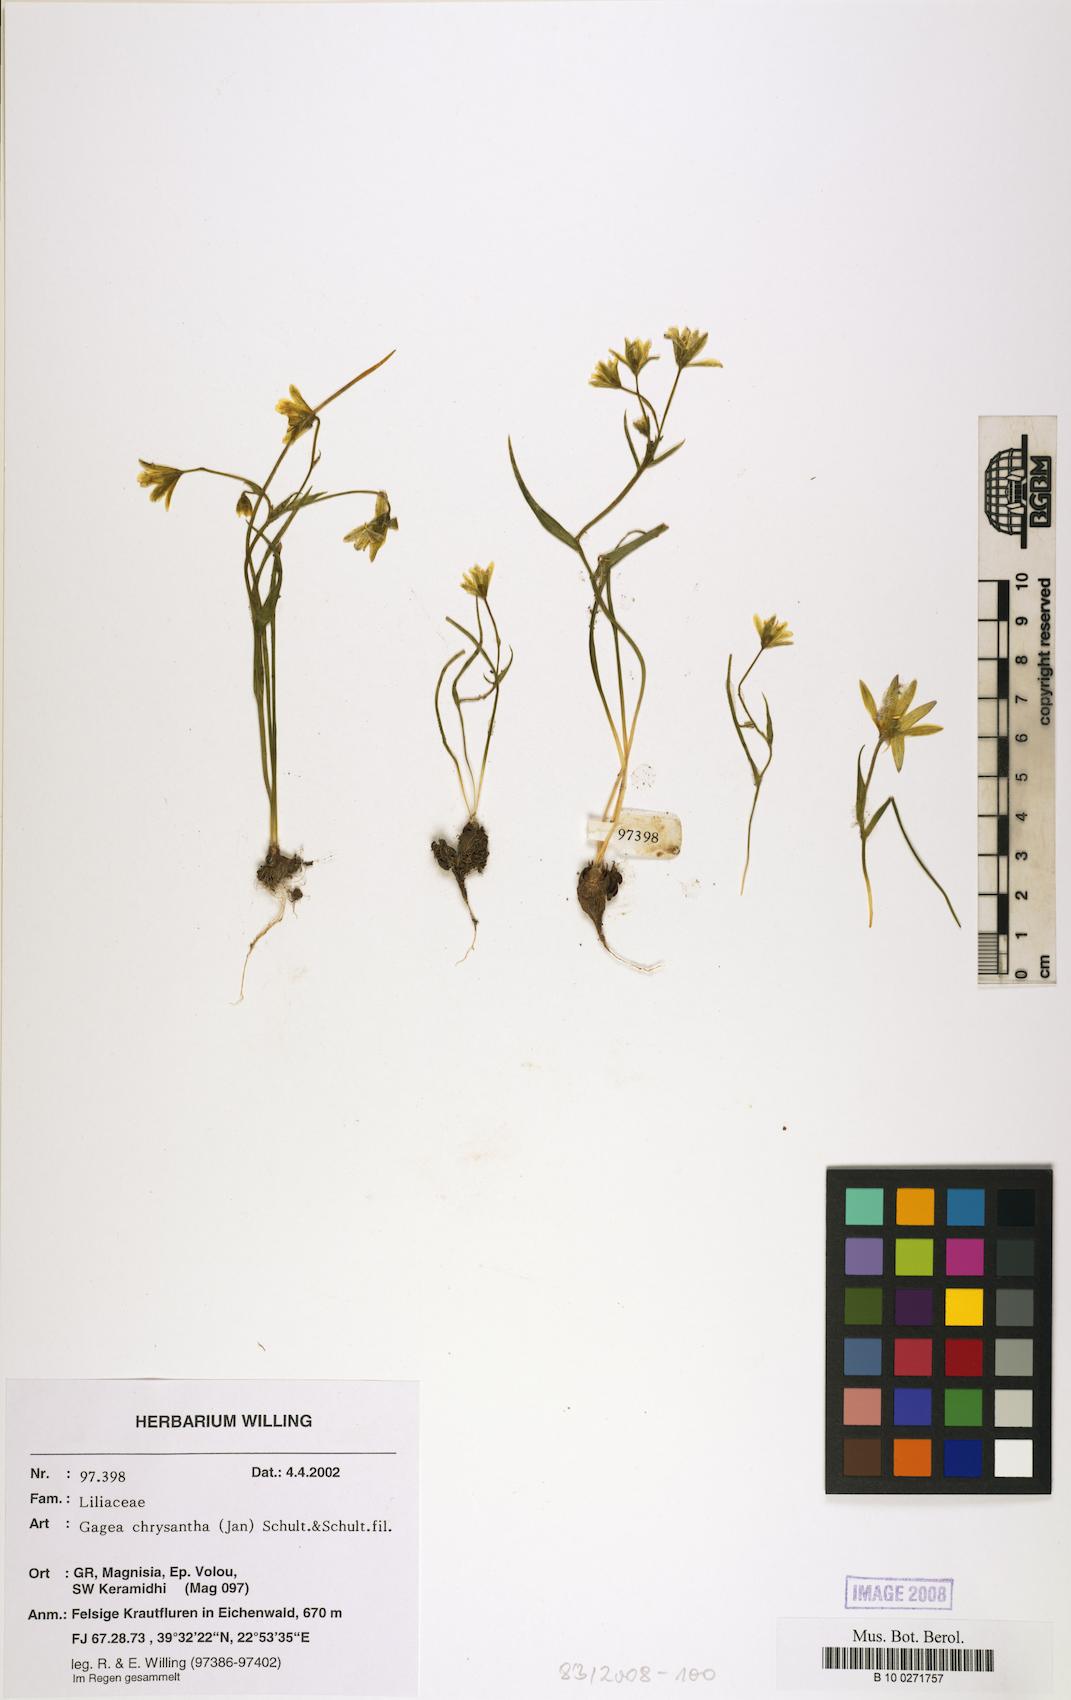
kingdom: Plantae
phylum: Tracheophyta
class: Liliopsida
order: Liliales
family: Liliaceae
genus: Gagea
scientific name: Gagea chrysantha
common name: Golden gagea
